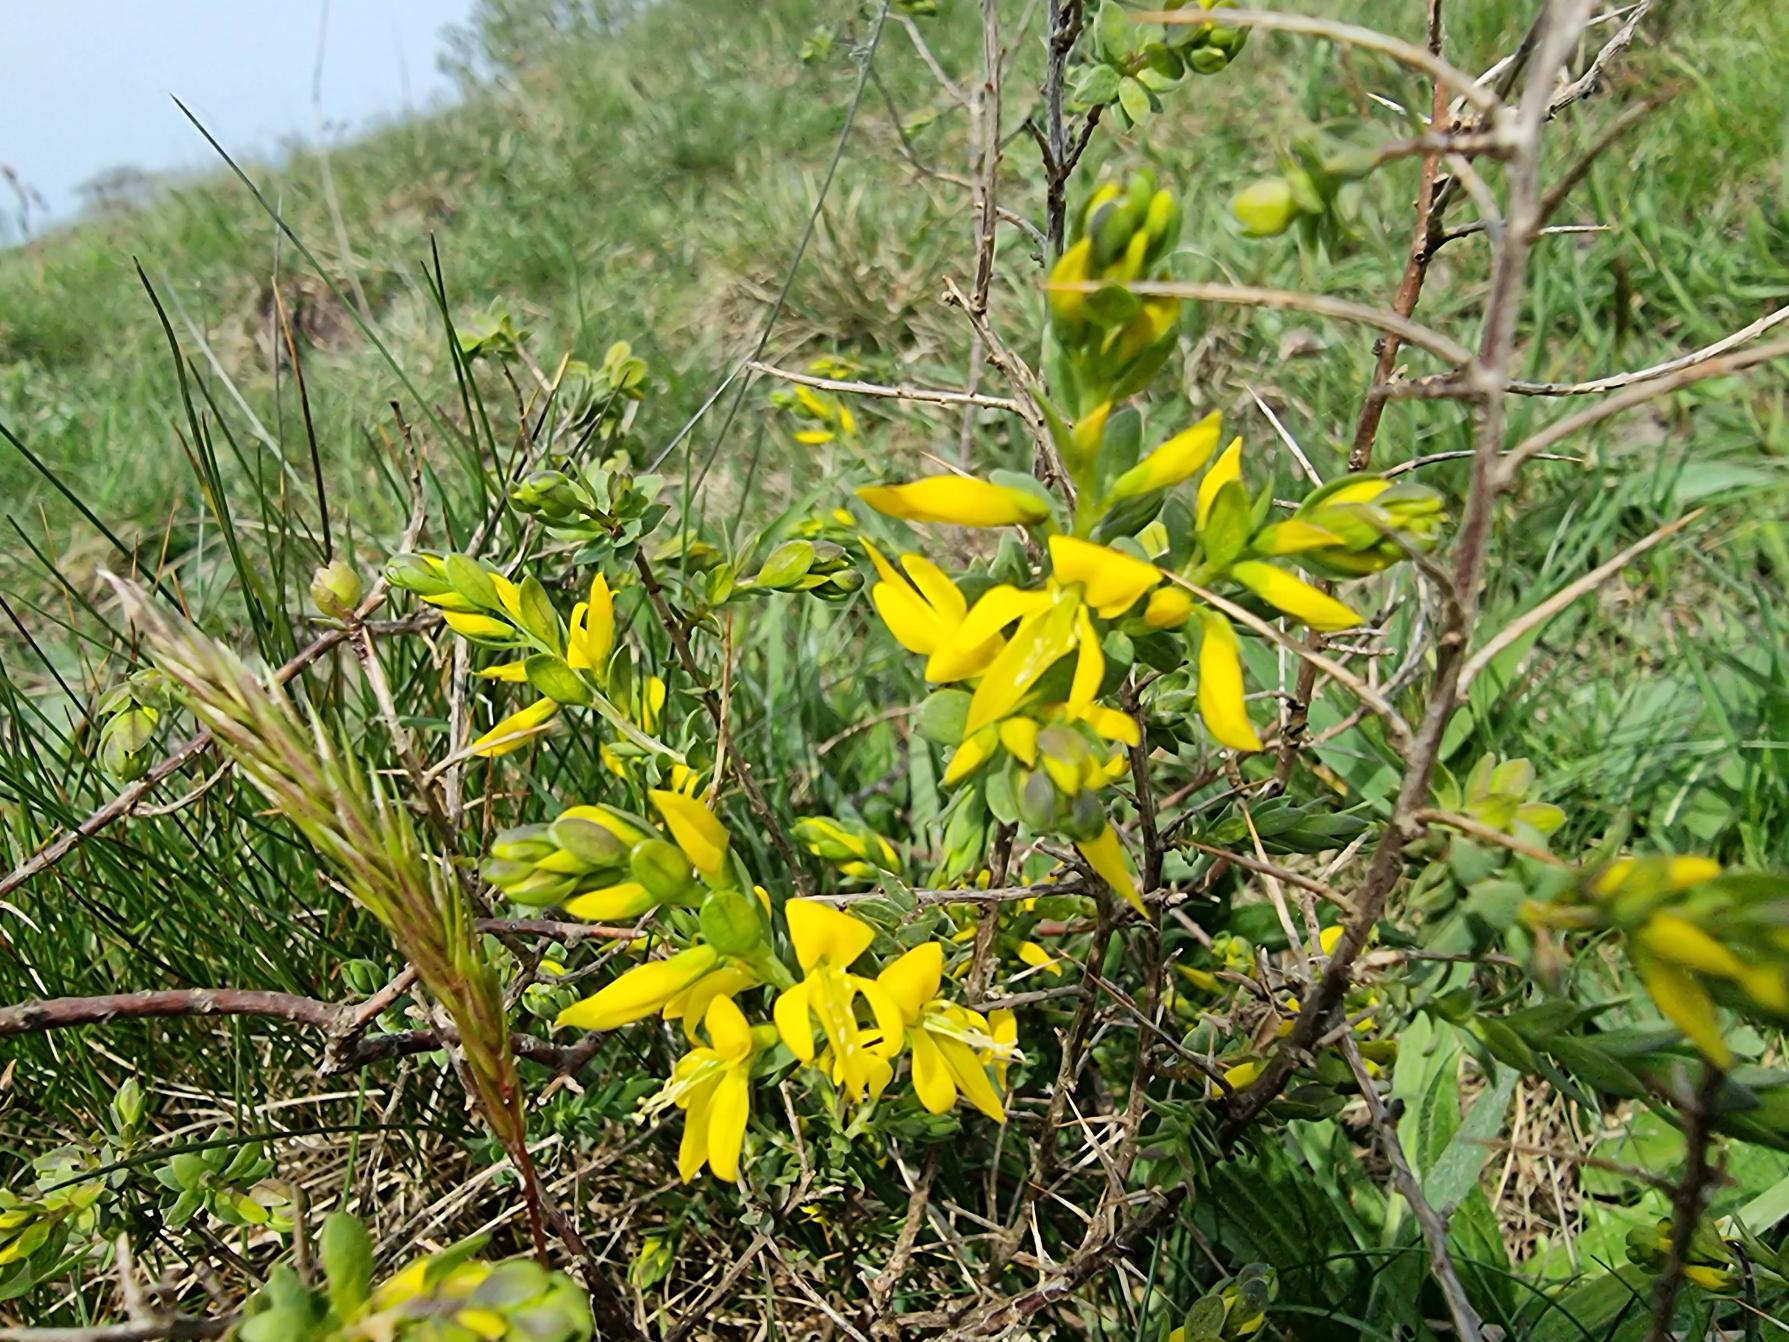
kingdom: Plantae
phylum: Tracheophyta
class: Magnoliopsida
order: Fabales
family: Fabaceae
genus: Genista
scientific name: Genista anglica
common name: Engelsk visse
